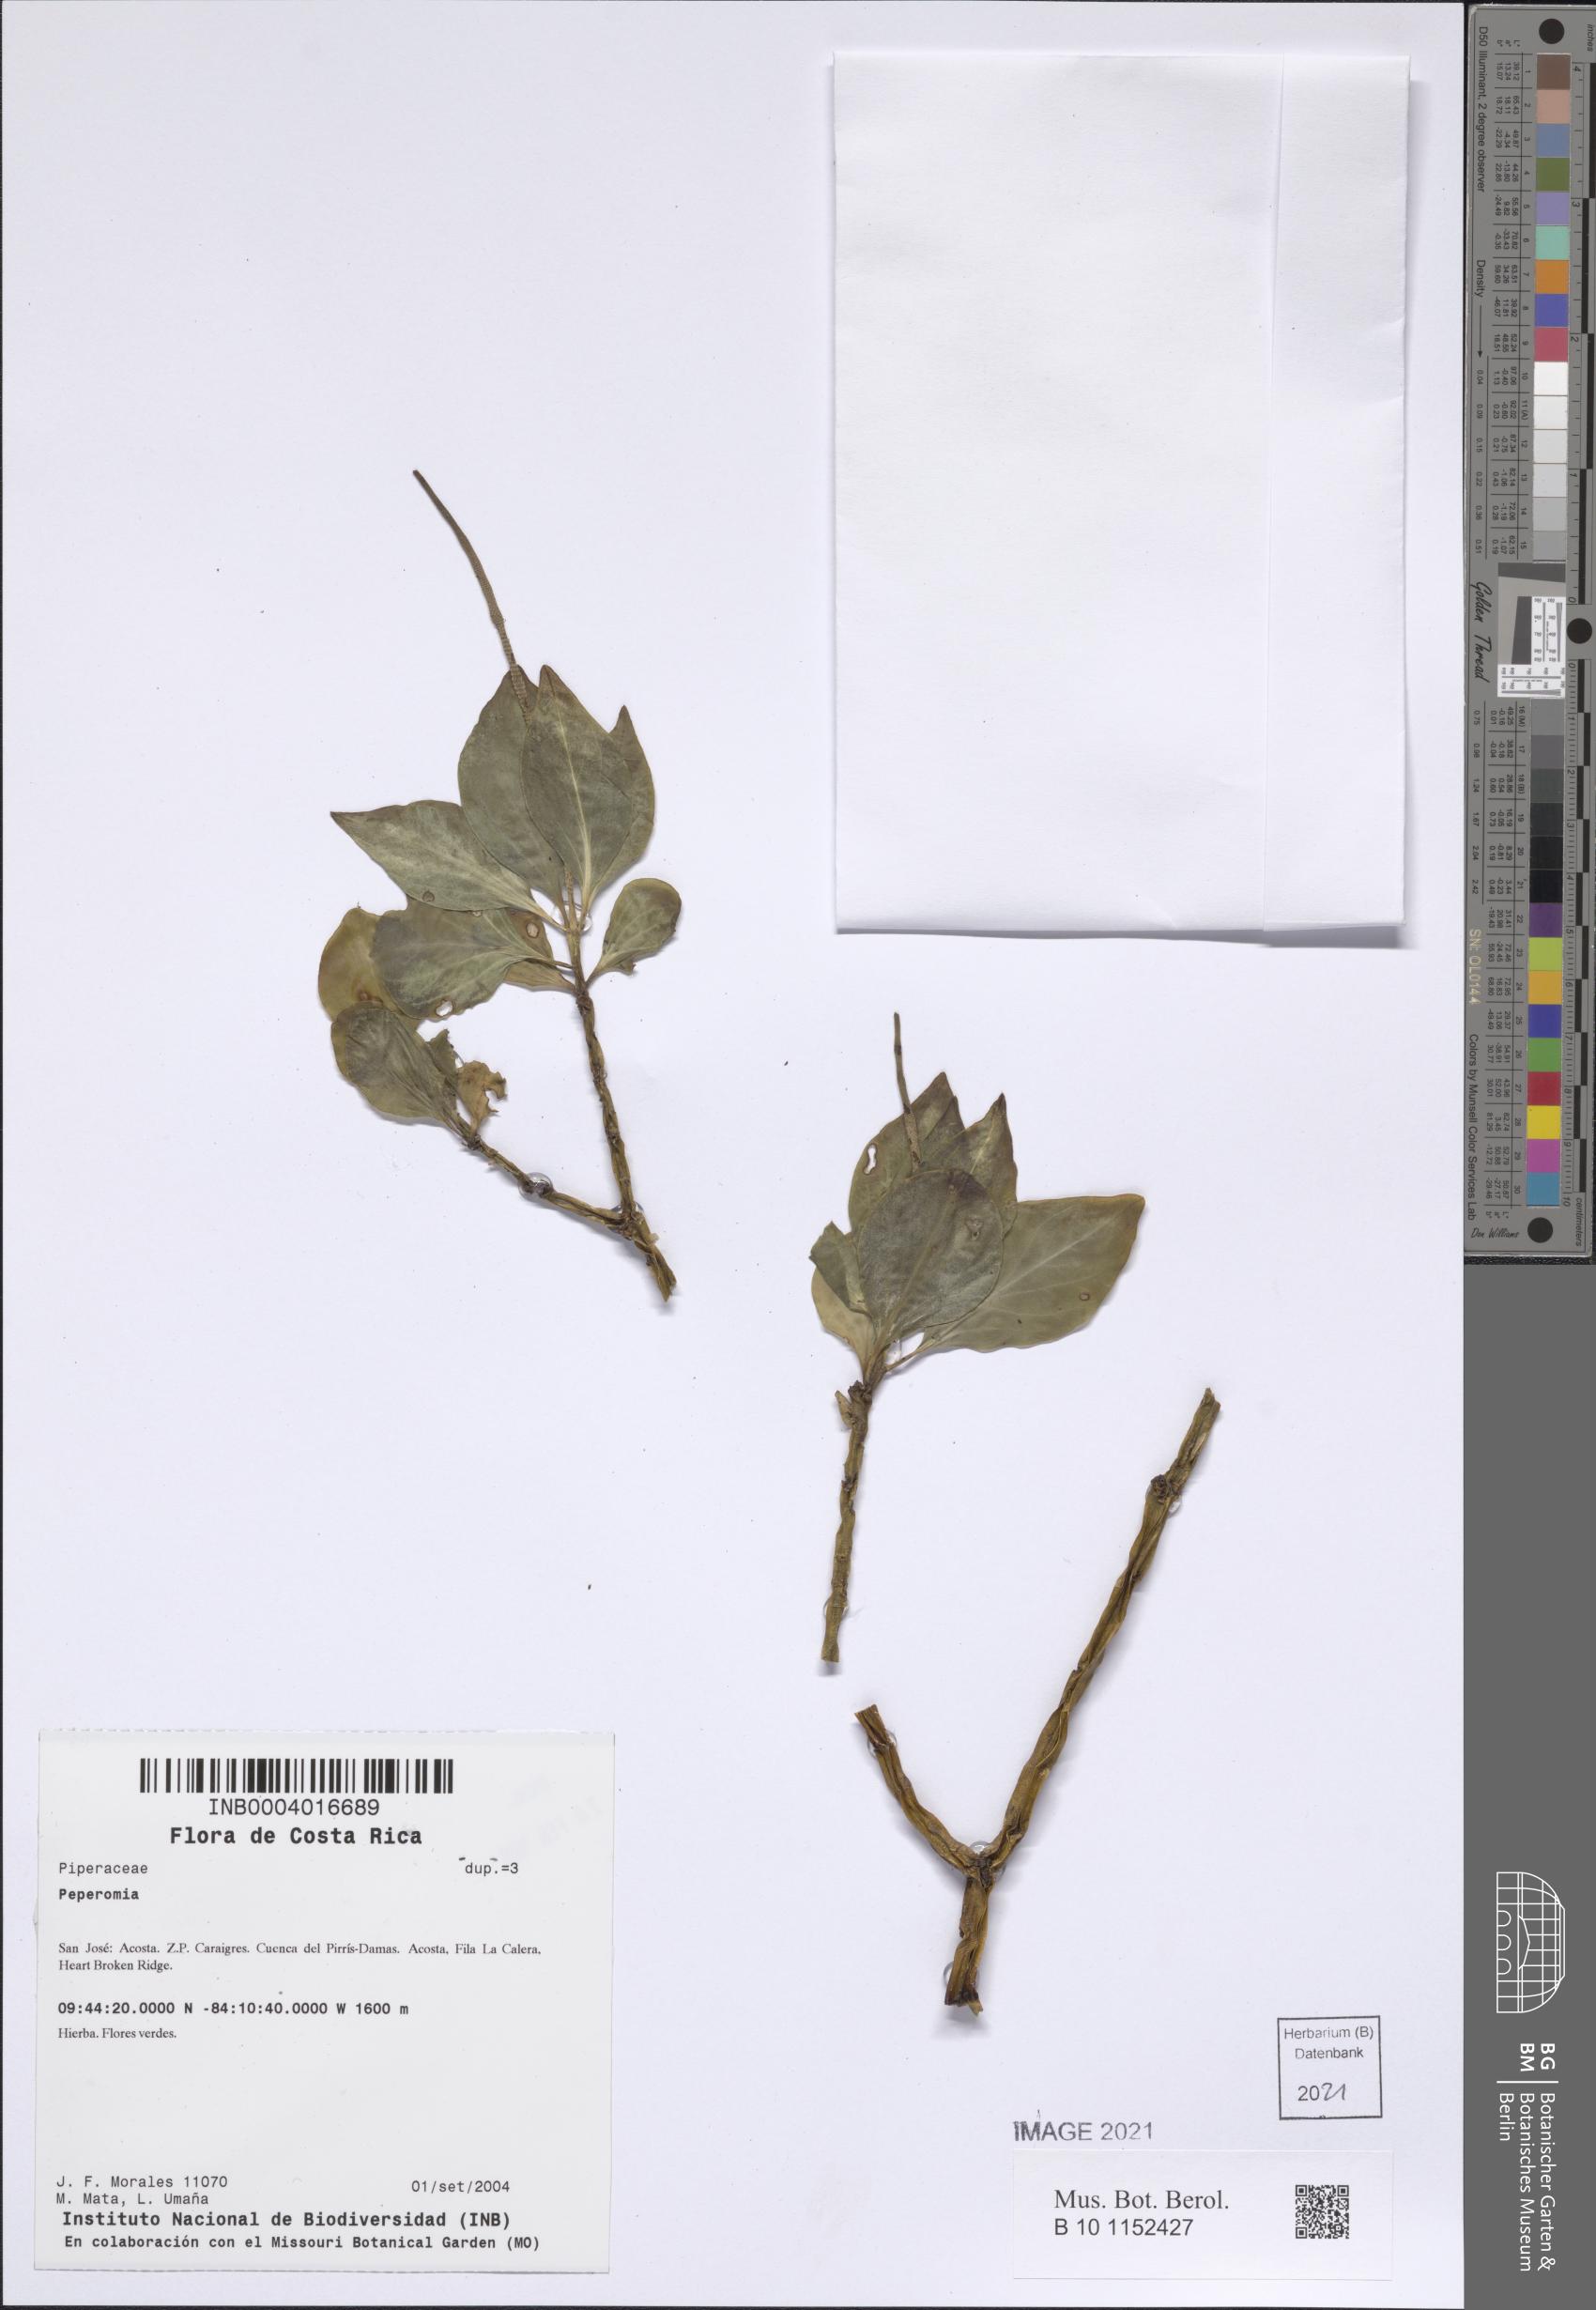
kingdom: Plantae
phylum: Tracheophyta
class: Magnoliopsida
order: Piperales
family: Piperaceae
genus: Peperomia
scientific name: Peperomia
